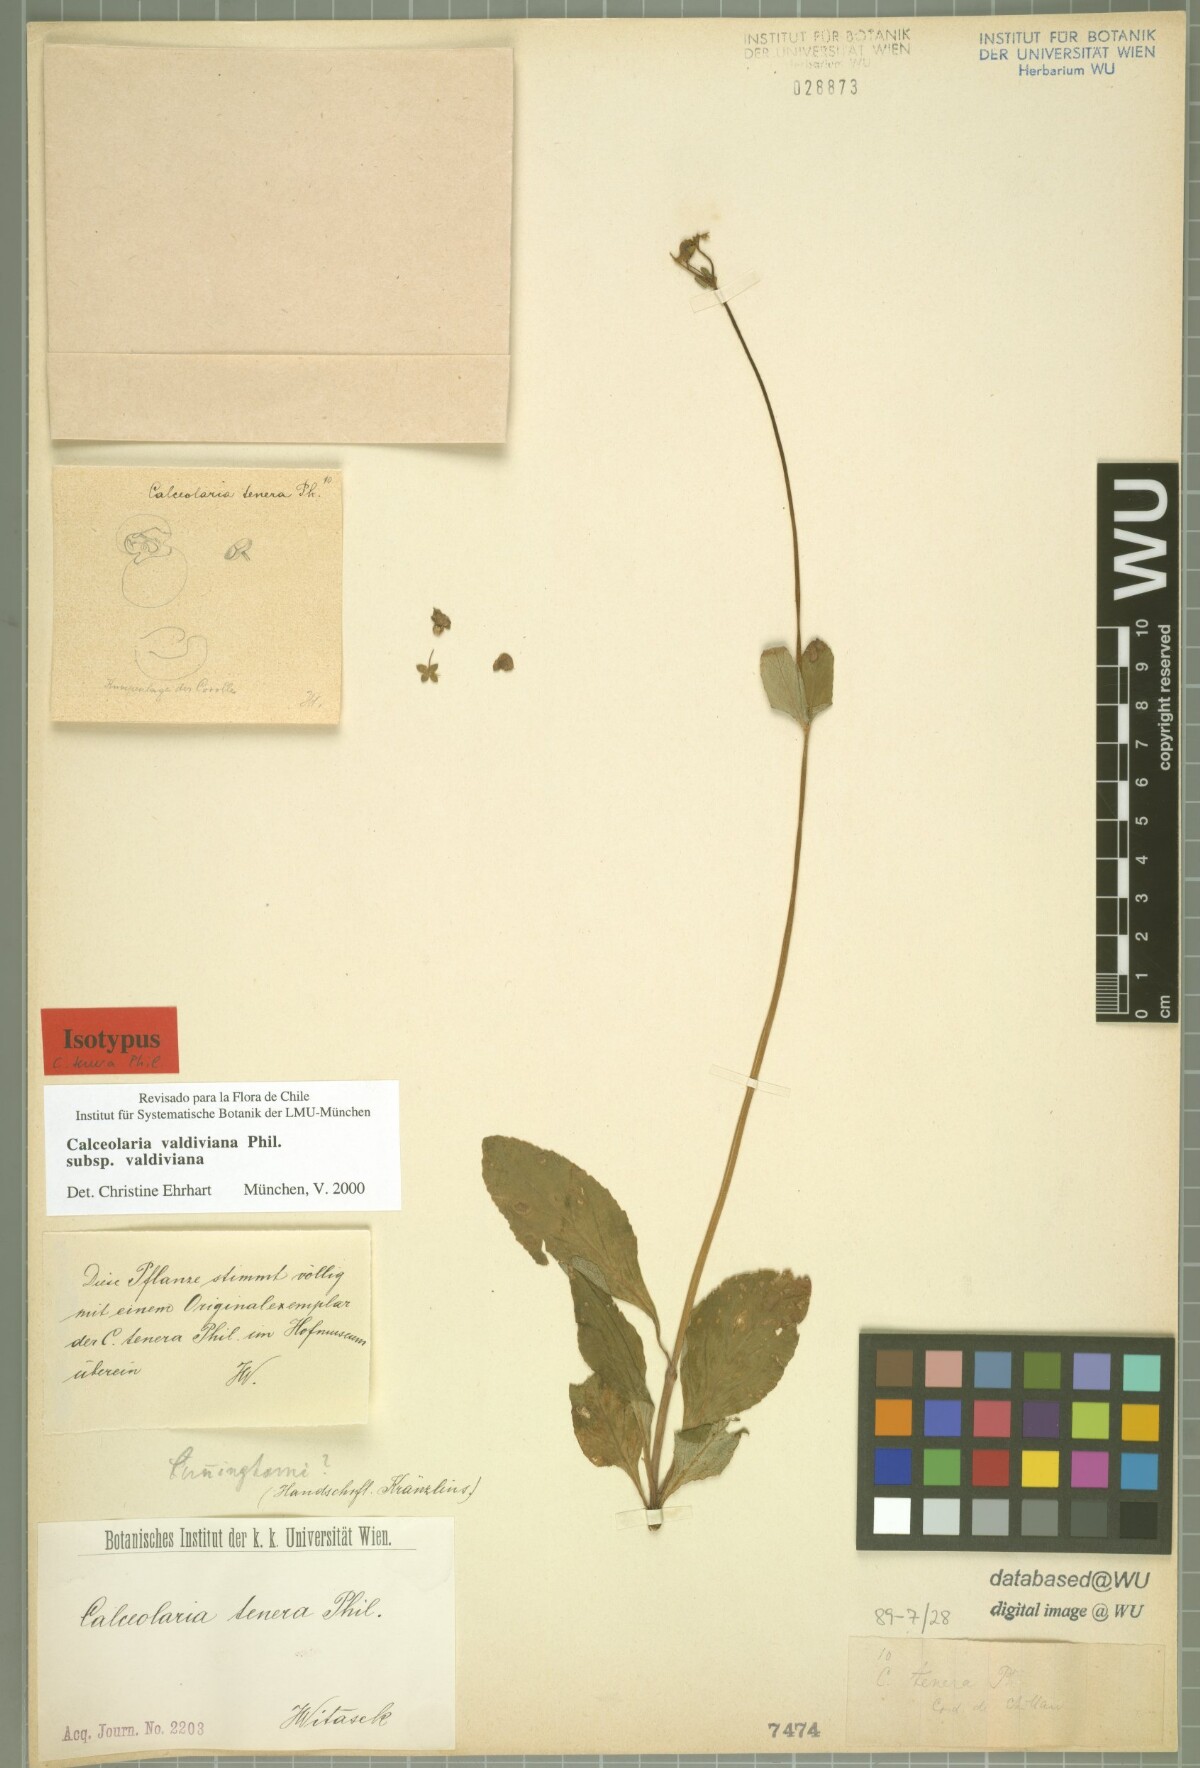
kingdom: Plantae
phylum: Tracheophyta
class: Magnoliopsida
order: Lamiales
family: Calceolariaceae
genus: Calceolaria
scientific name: Calceolaria valdiviana
